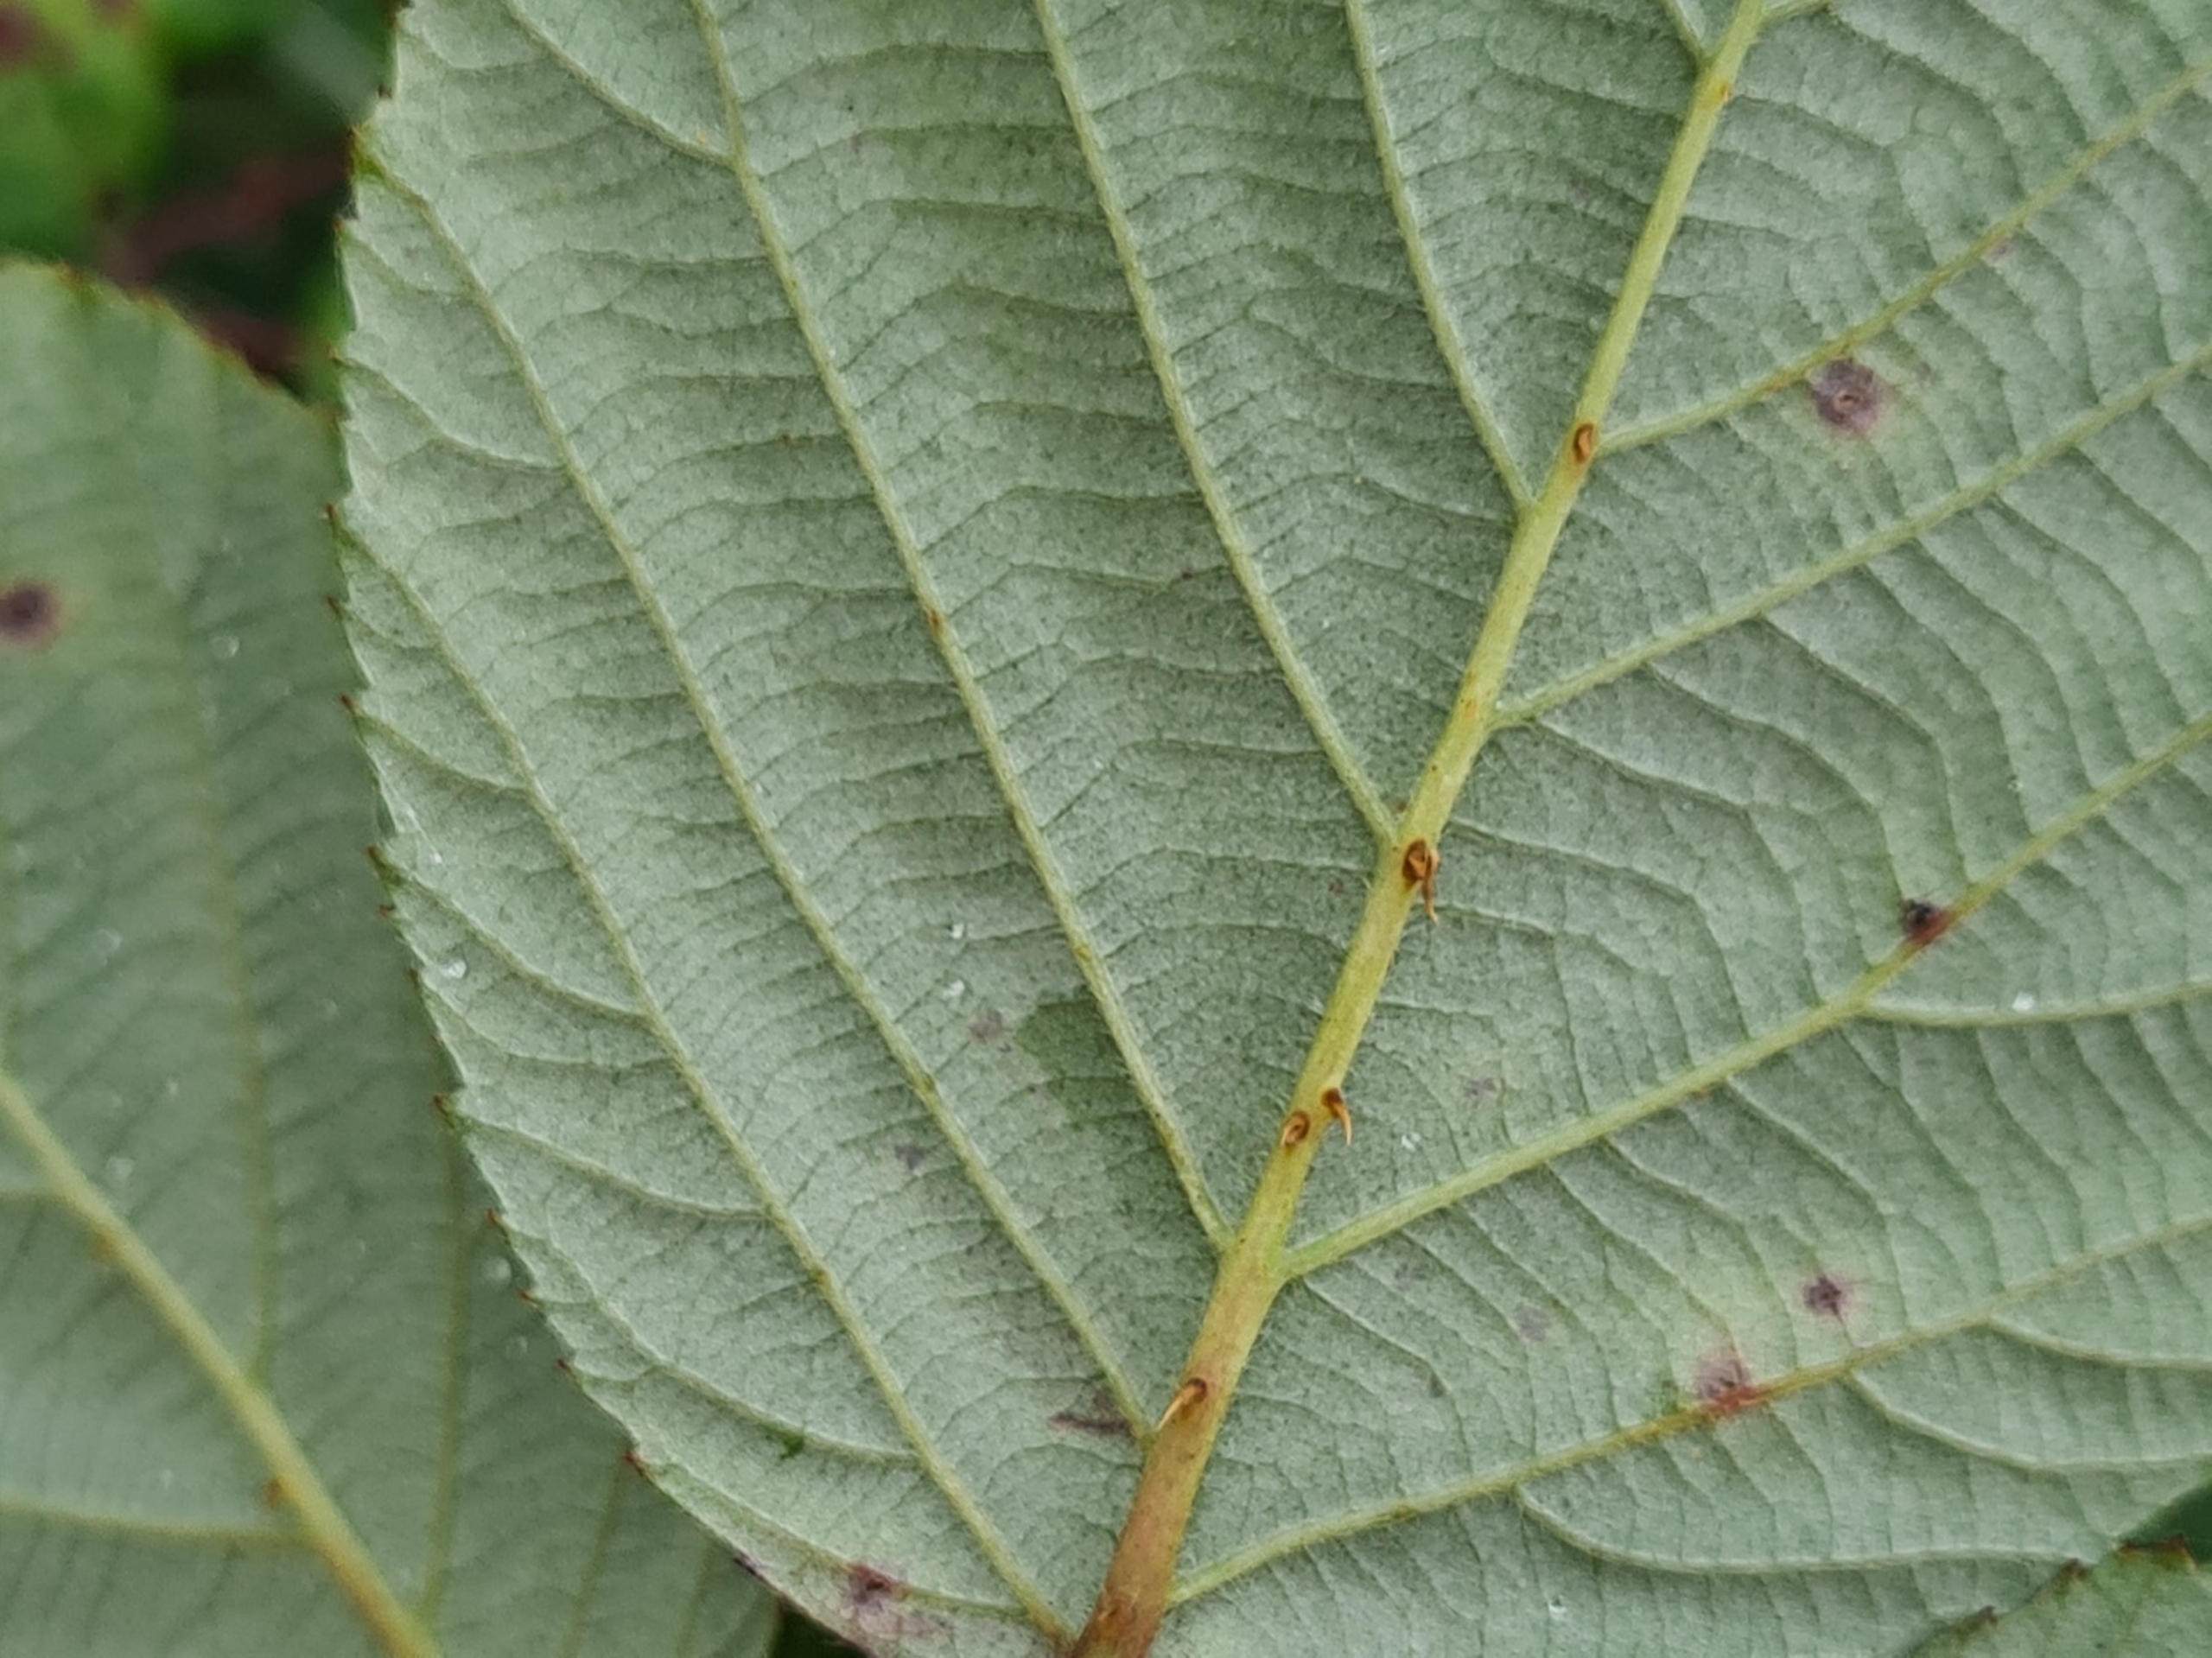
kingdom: Plantae
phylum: Tracheophyta
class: Magnoliopsida
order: Rosales
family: Rosaceae
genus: Rubus
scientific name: Rubus polyanthemus
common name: Rigtblomstret brombær
